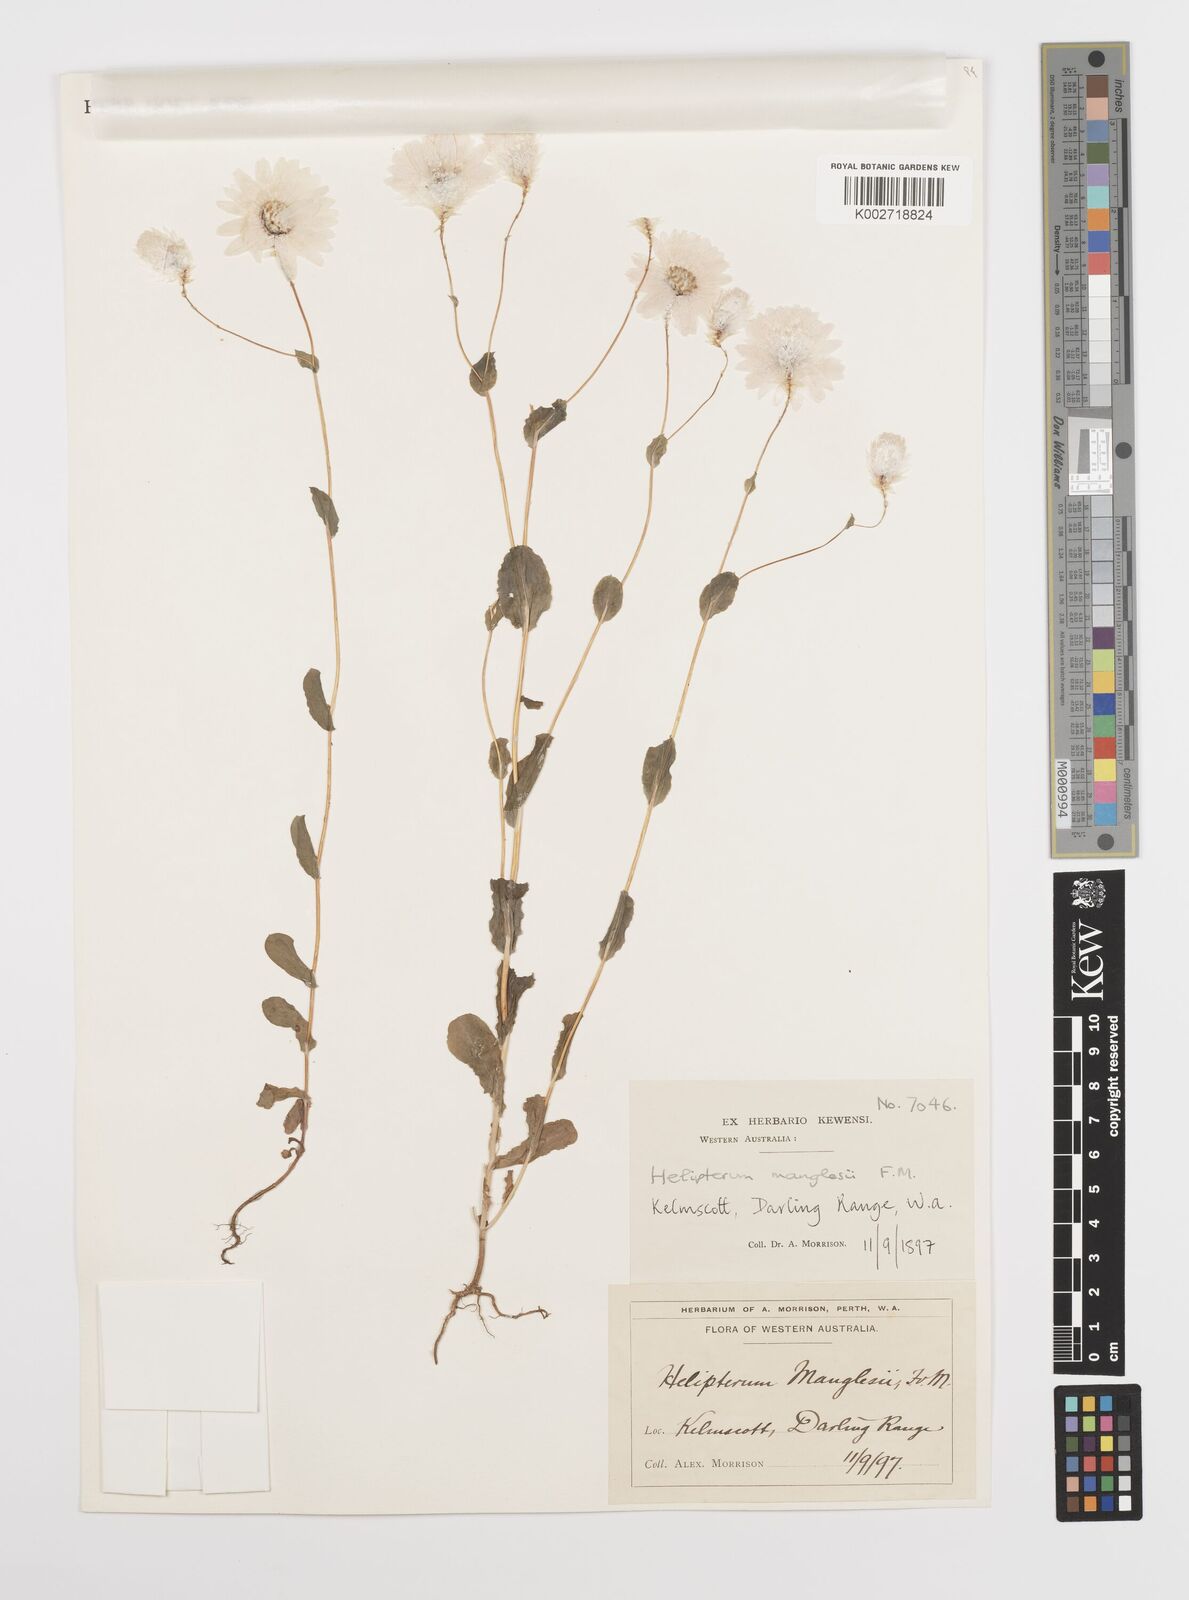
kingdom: Plantae
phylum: Tracheophyta
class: Magnoliopsida
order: Asterales
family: Asteraceae
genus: Rhodanthe
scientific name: Rhodanthe manglesii
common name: Pink sunray
